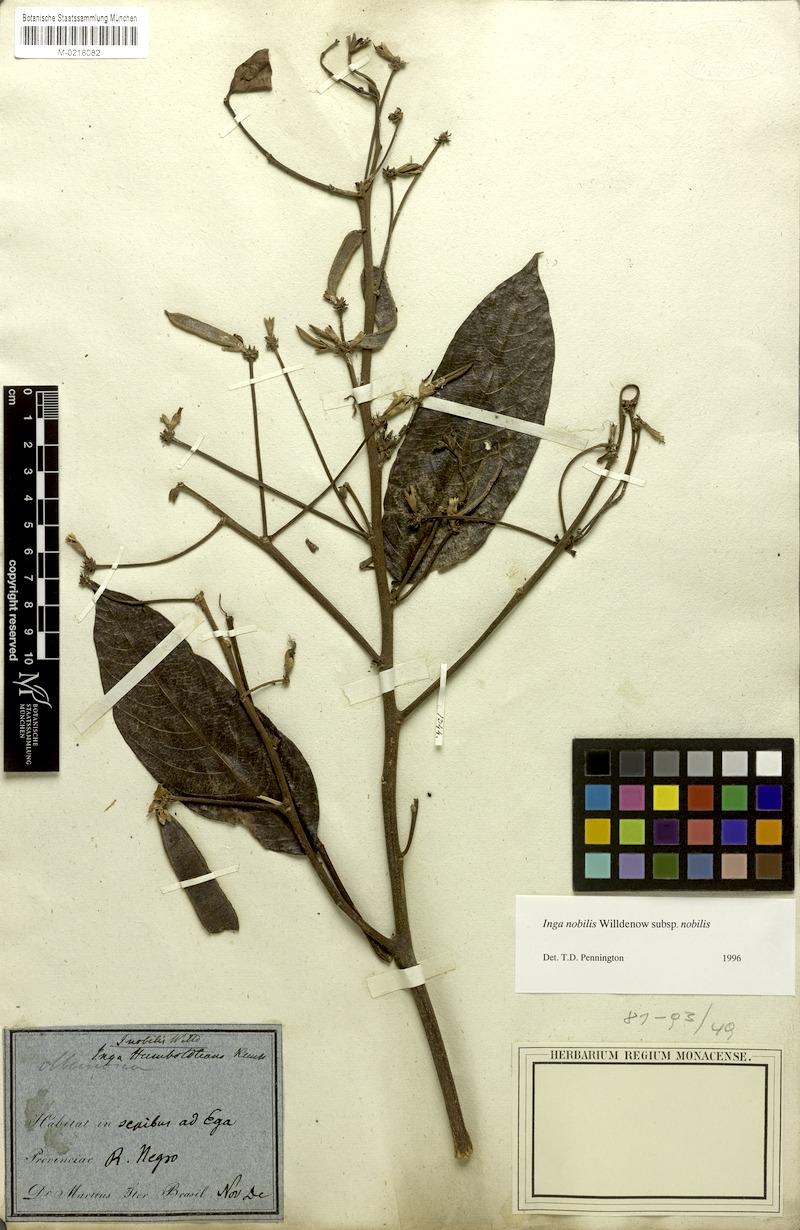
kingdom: Plantae
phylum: Tracheophyta
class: Magnoliopsida
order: Fabales
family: Fabaceae
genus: Inga
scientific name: Inga nobilis
